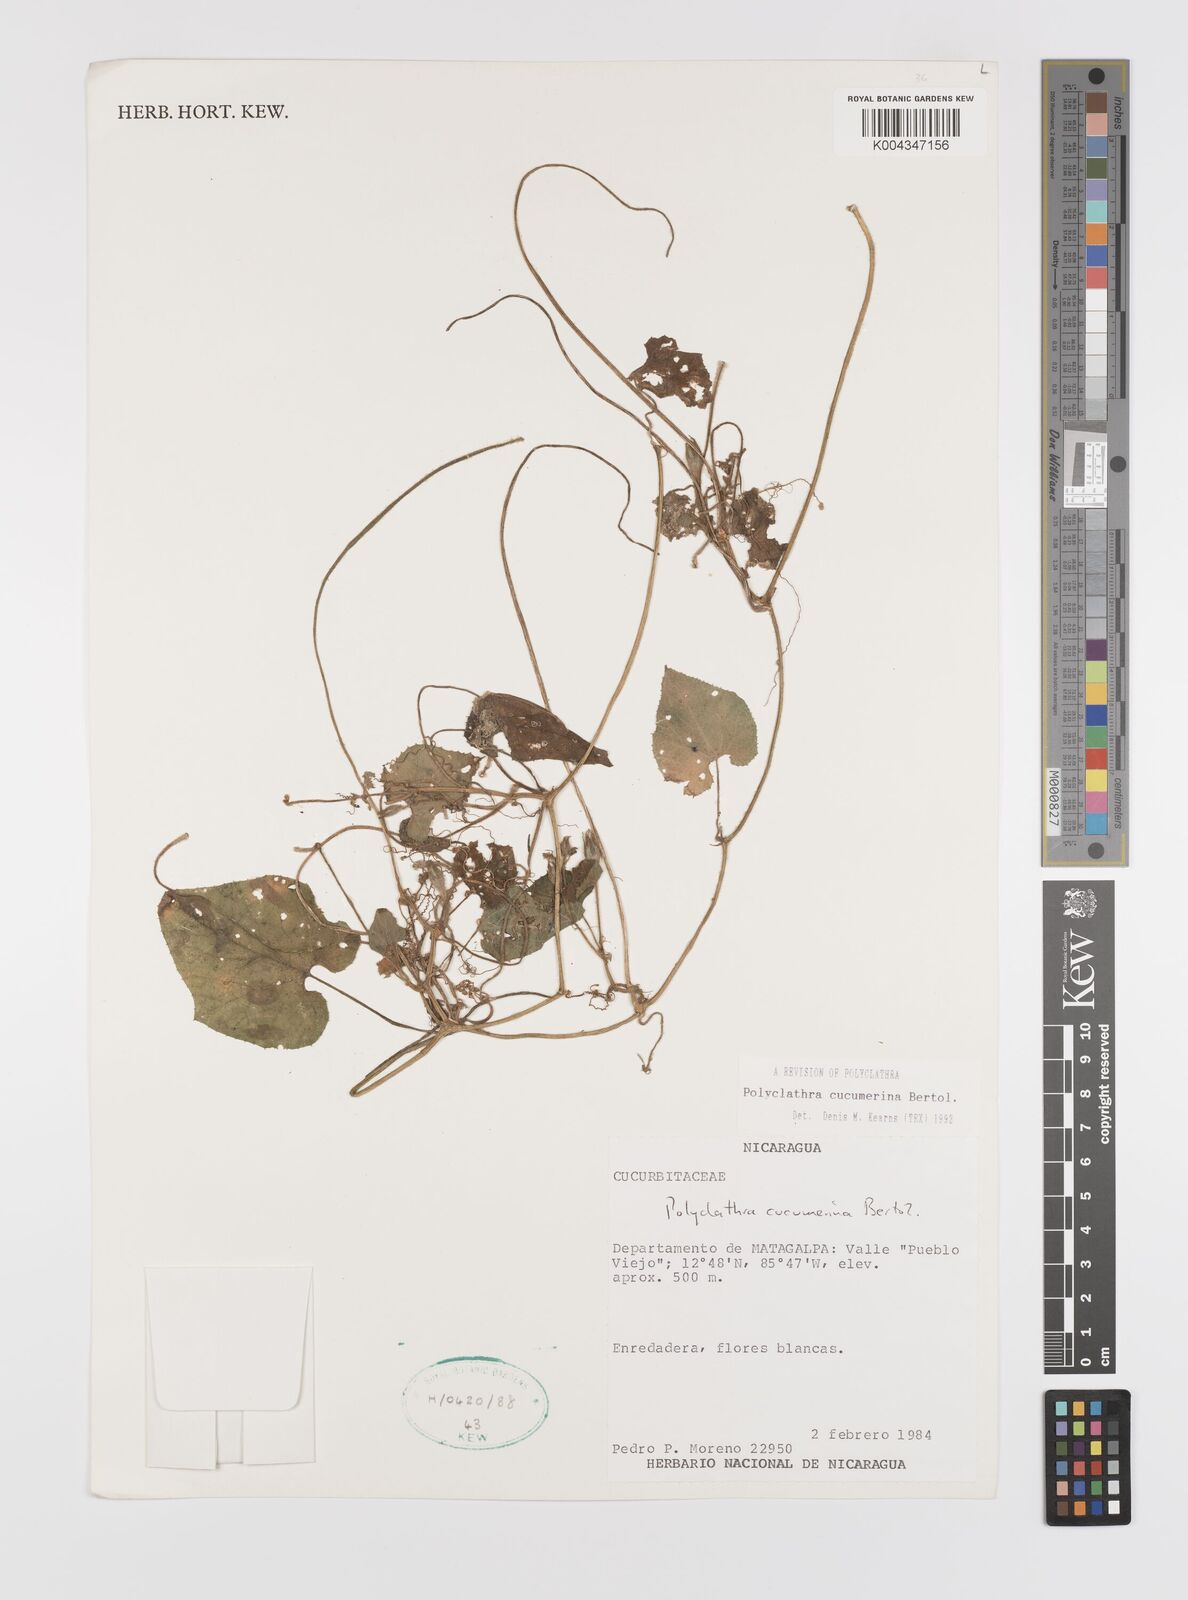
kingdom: Plantae
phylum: Tracheophyta
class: Magnoliopsida
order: Cucurbitales
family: Cucurbitaceae
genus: Polyclathra
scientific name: Polyclathra cucumerina
